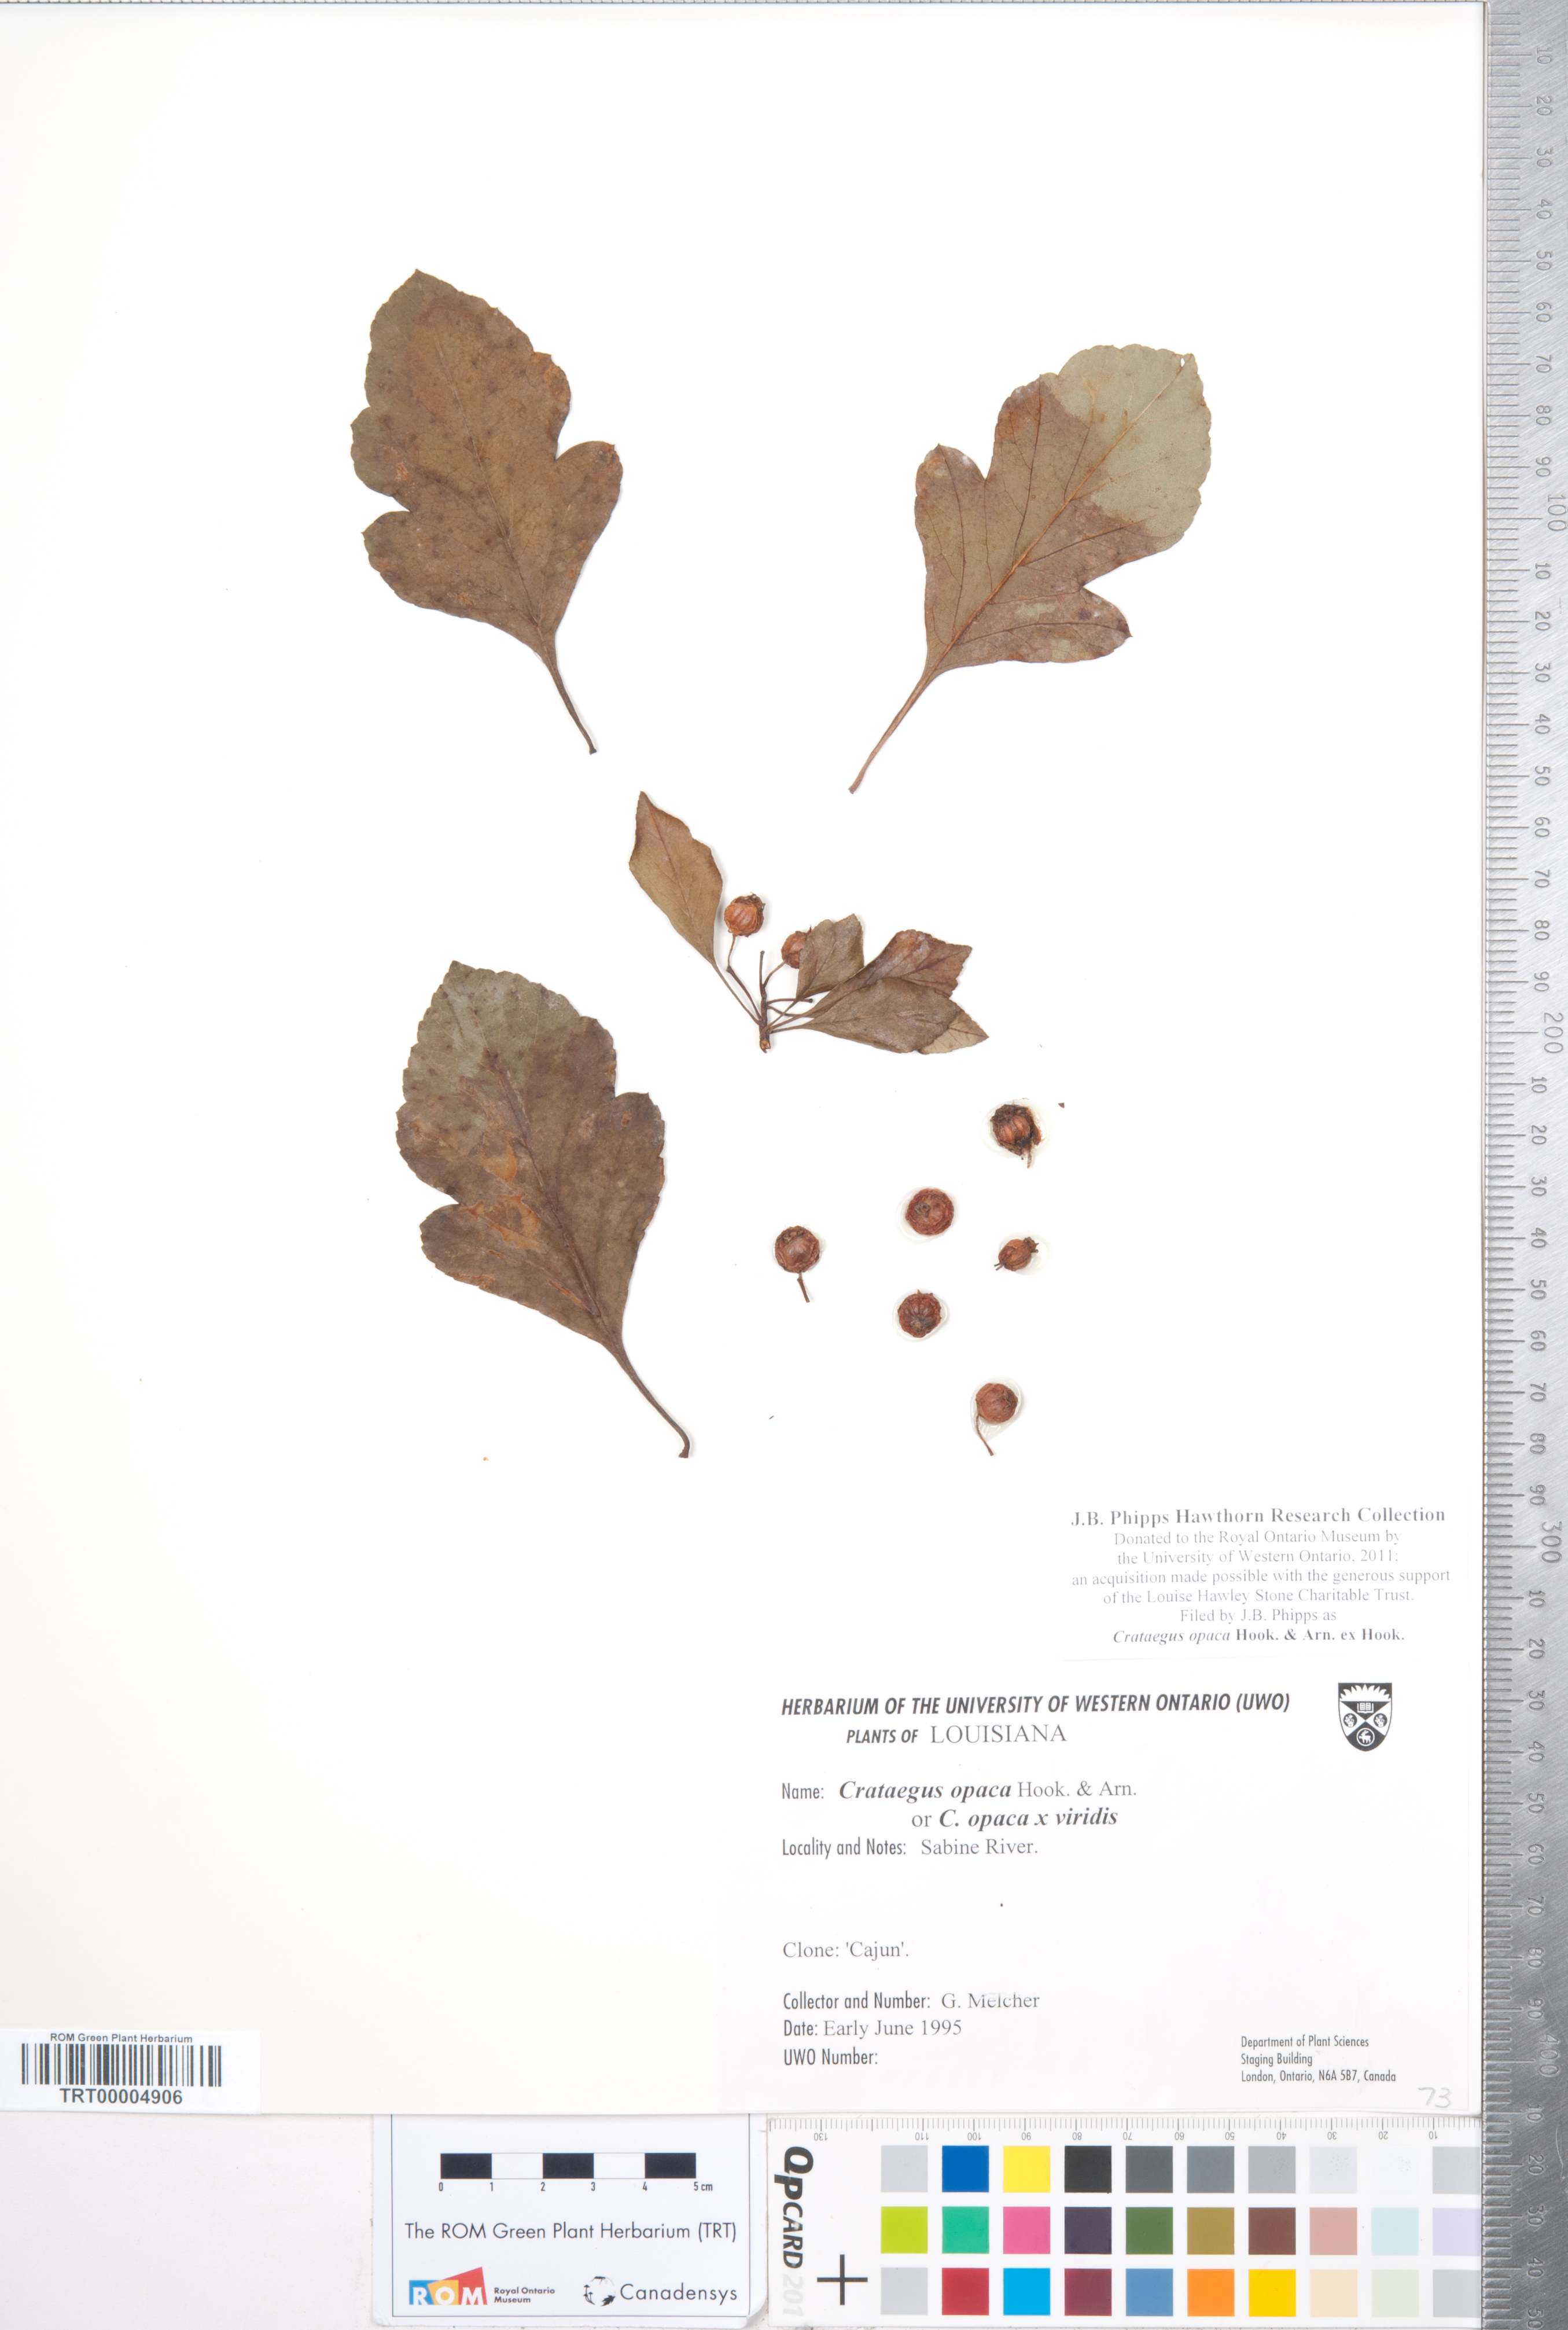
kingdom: Plantae
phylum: Tracheophyta
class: Magnoliopsida
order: Rosales
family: Rosaceae
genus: Crataegus
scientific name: Crataegus opaca
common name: Apple haw
